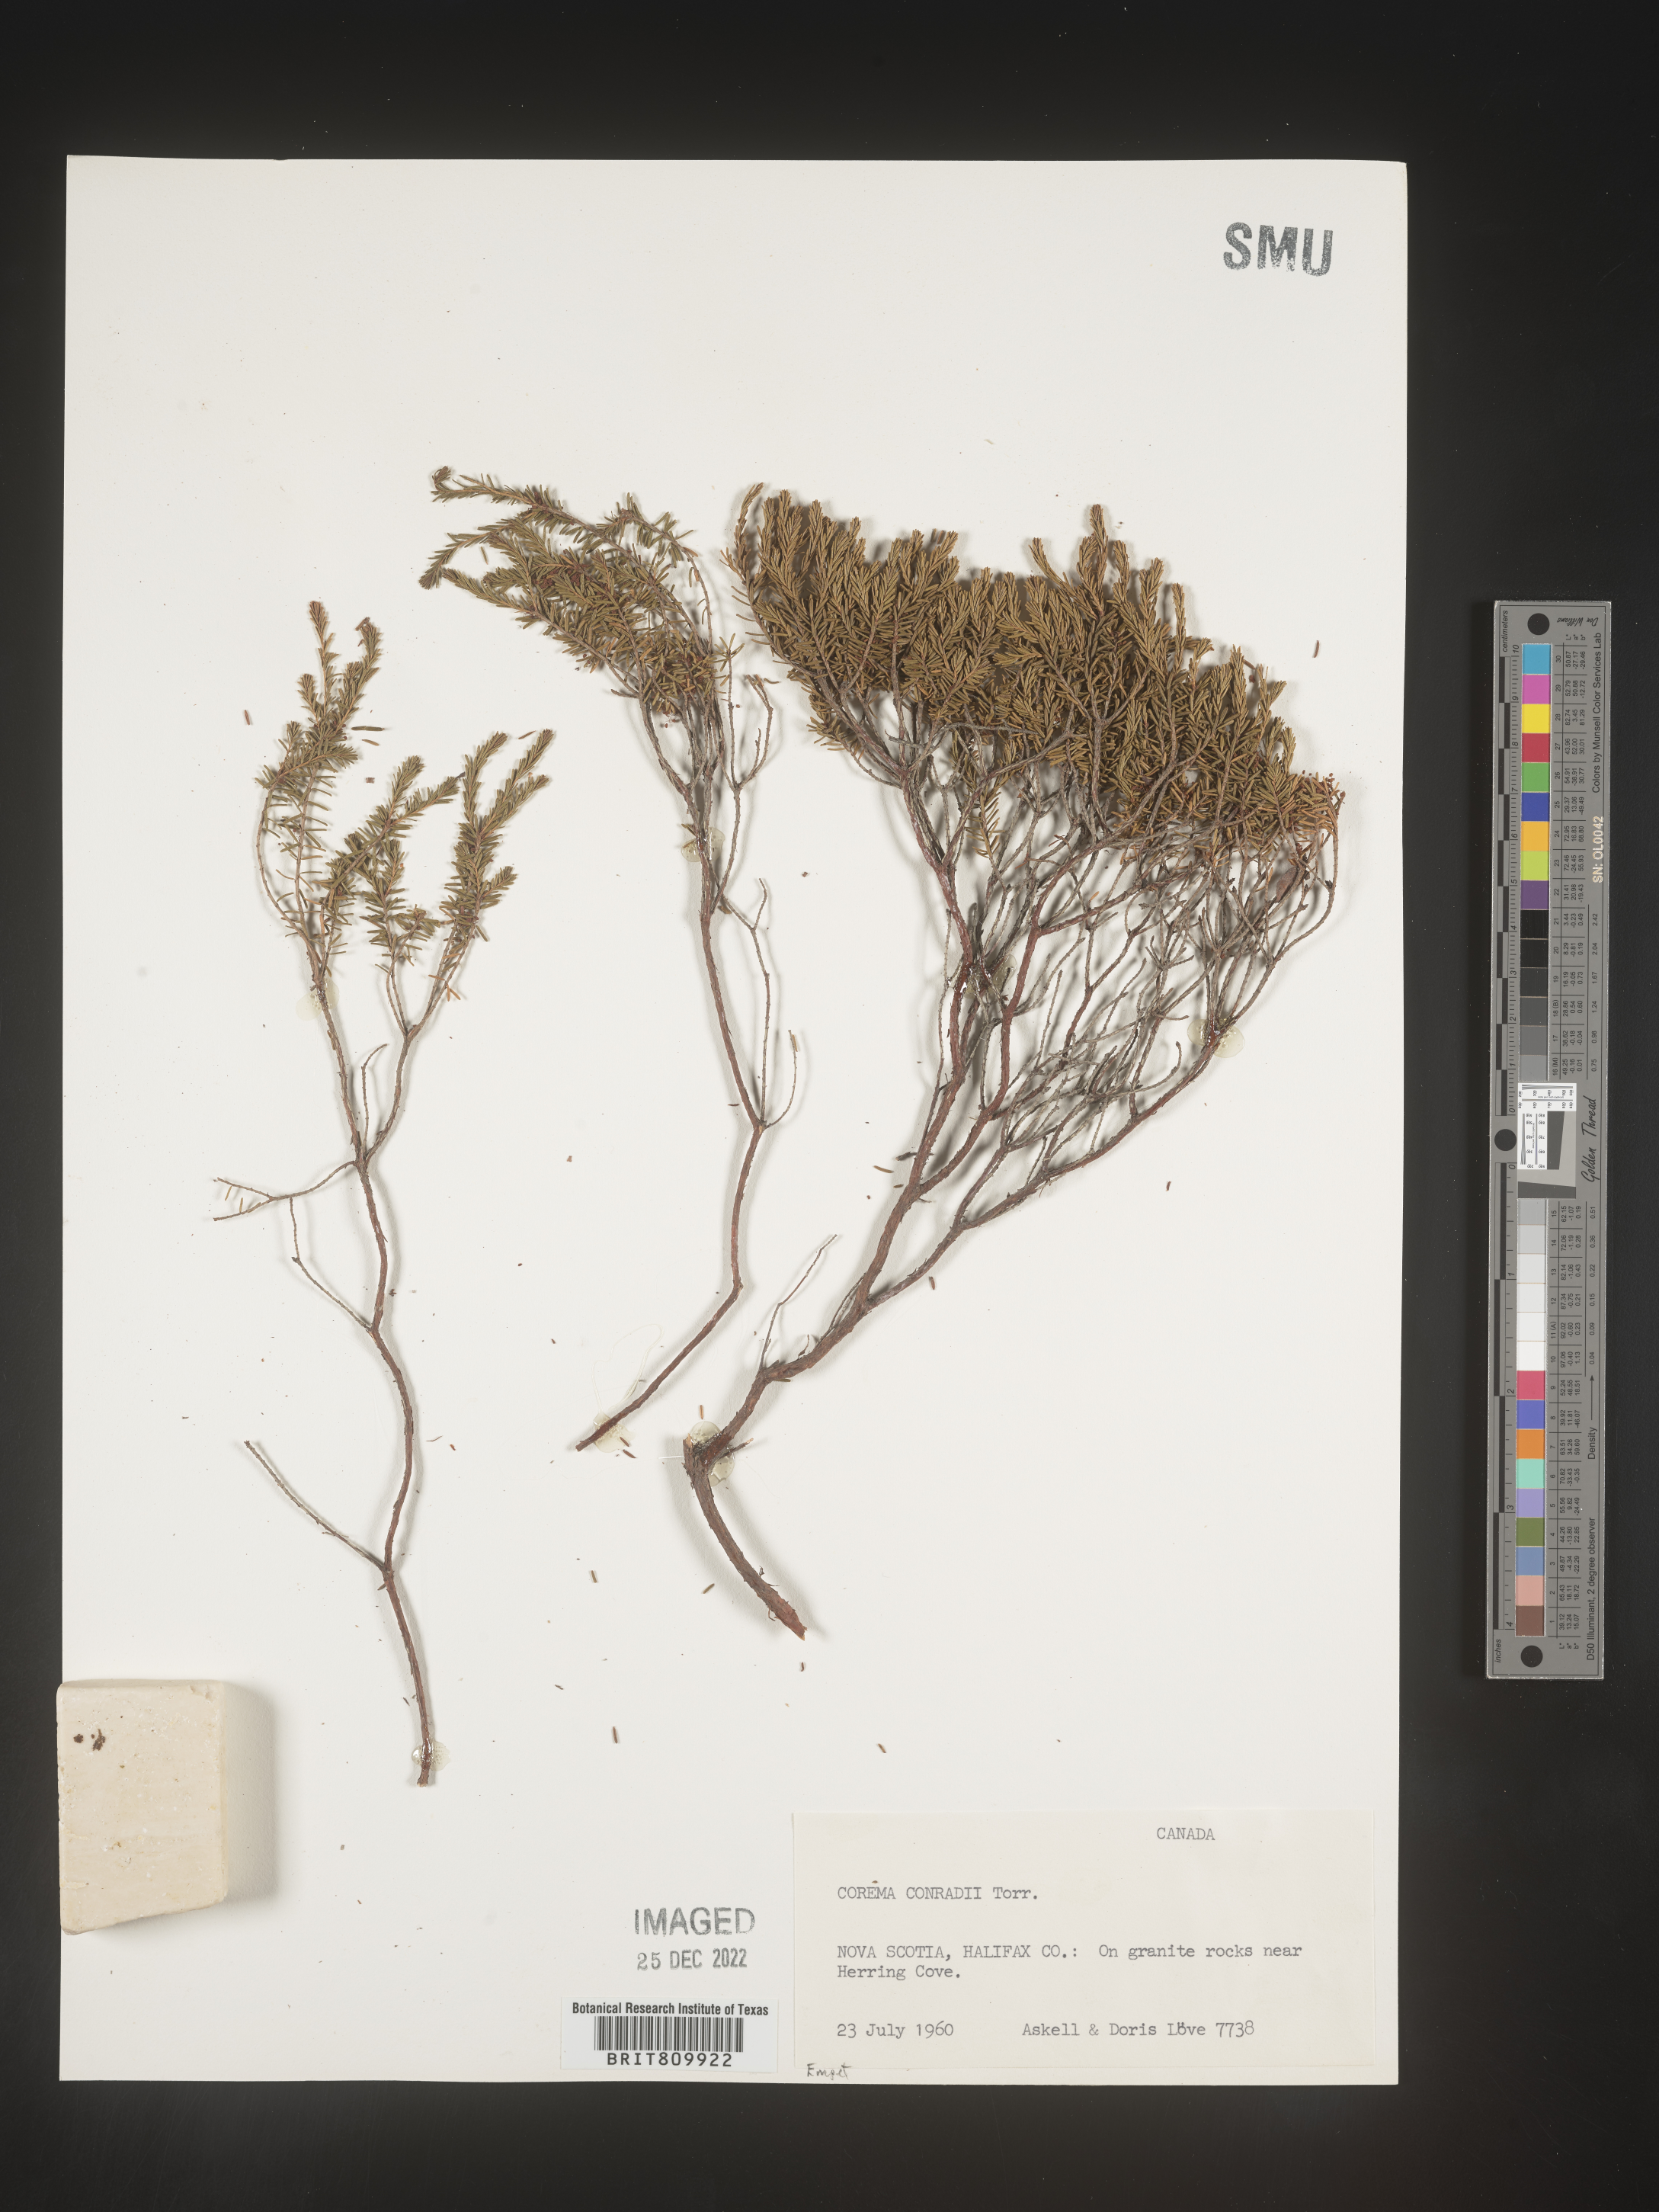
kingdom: Plantae
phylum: Tracheophyta
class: Magnoliopsida
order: Ericales
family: Ericaceae
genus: Corema
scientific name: Corema
